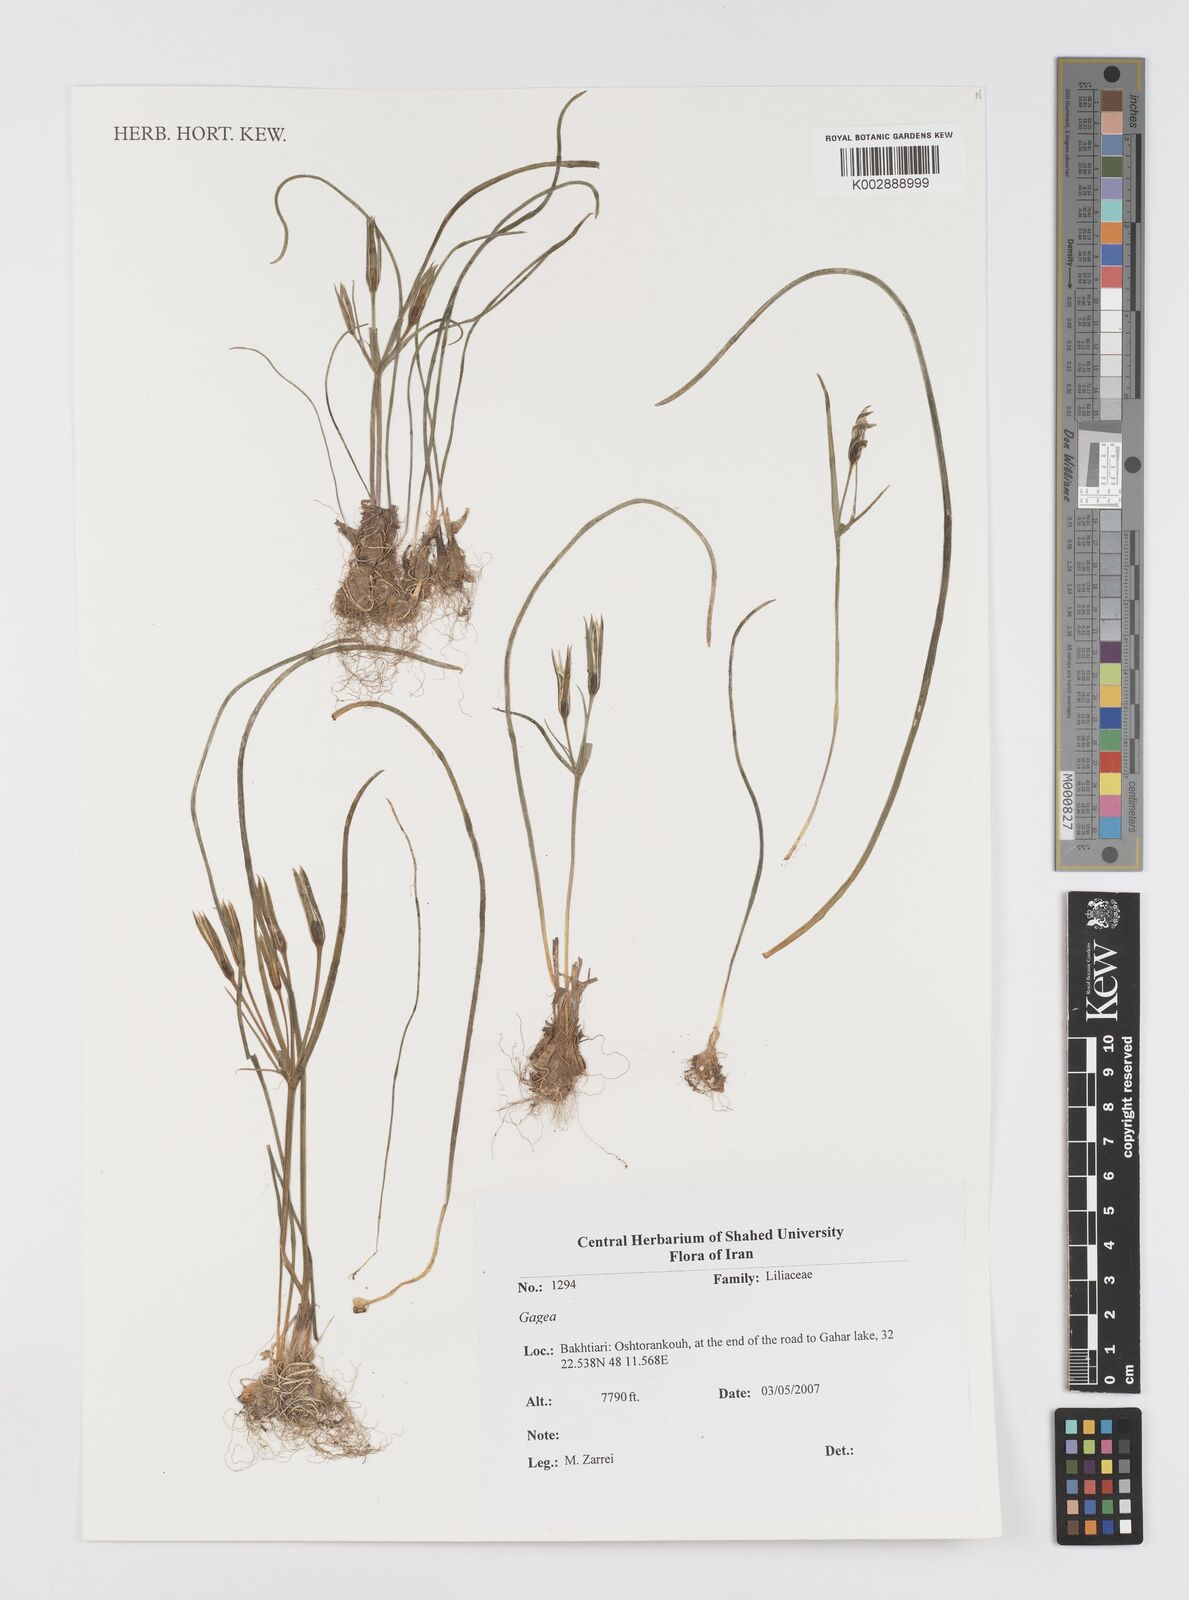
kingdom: Plantae
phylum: Tracheophyta
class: Liliopsida
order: Liliales
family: Liliaceae
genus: Gagea
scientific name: Gagea
